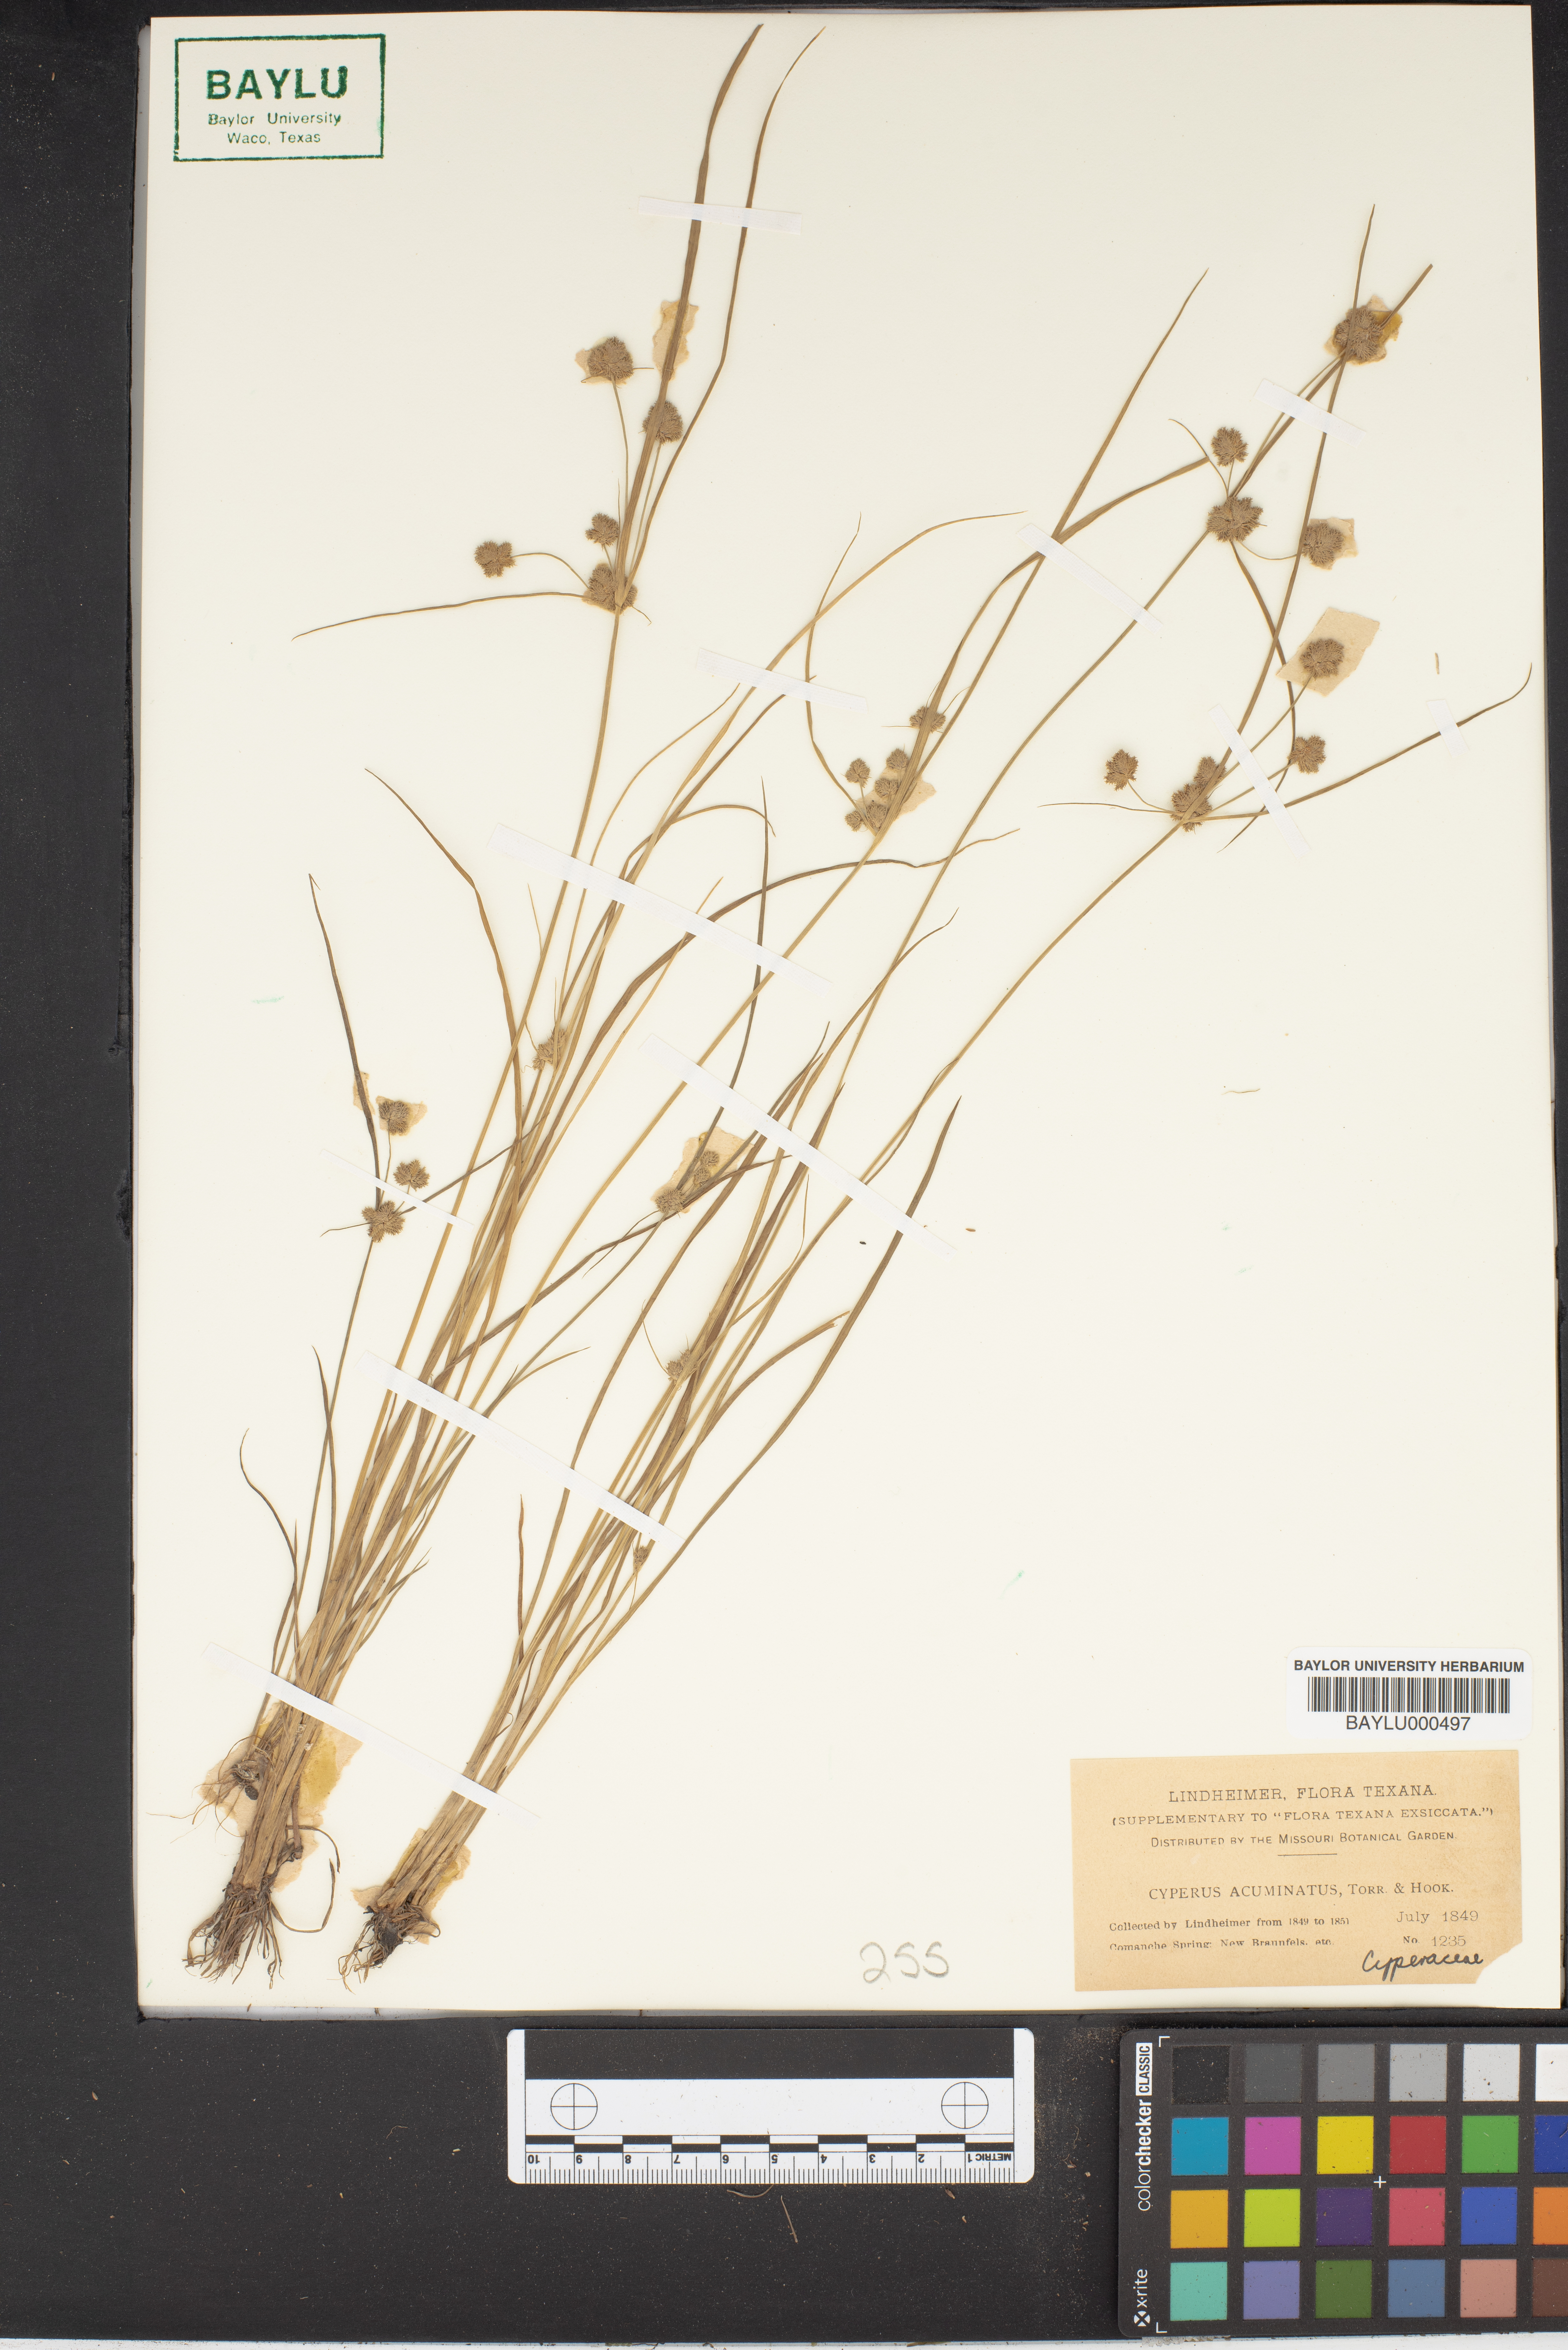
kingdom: Plantae
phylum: Tracheophyta
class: Liliopsida
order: Poales
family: Cyperaceae
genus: Cyperus
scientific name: Cyperus acuminatus
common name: Short-pointed cyperus
